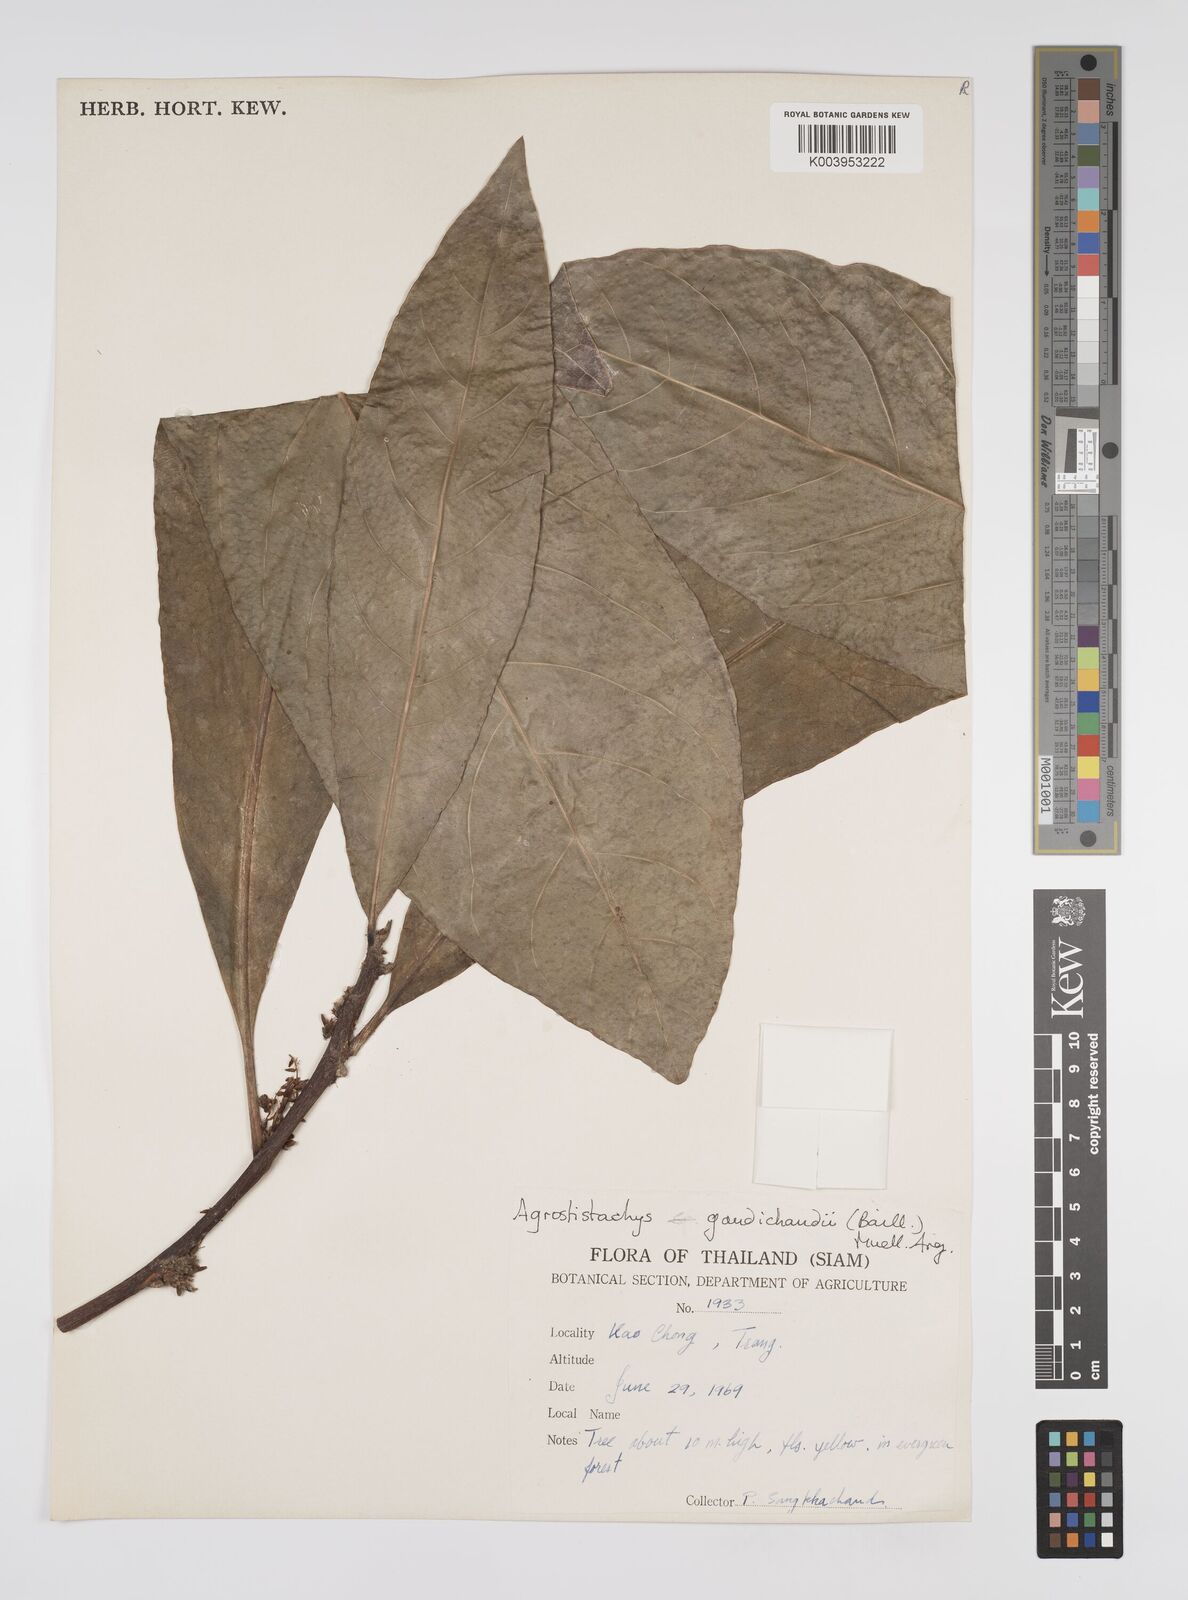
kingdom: Plantae
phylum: Tracheophyta
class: Magnoliopsida
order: Malpighiales
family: Euphorbiaceae
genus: Agrostistachys
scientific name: Agrostistachys gaudichaudii
